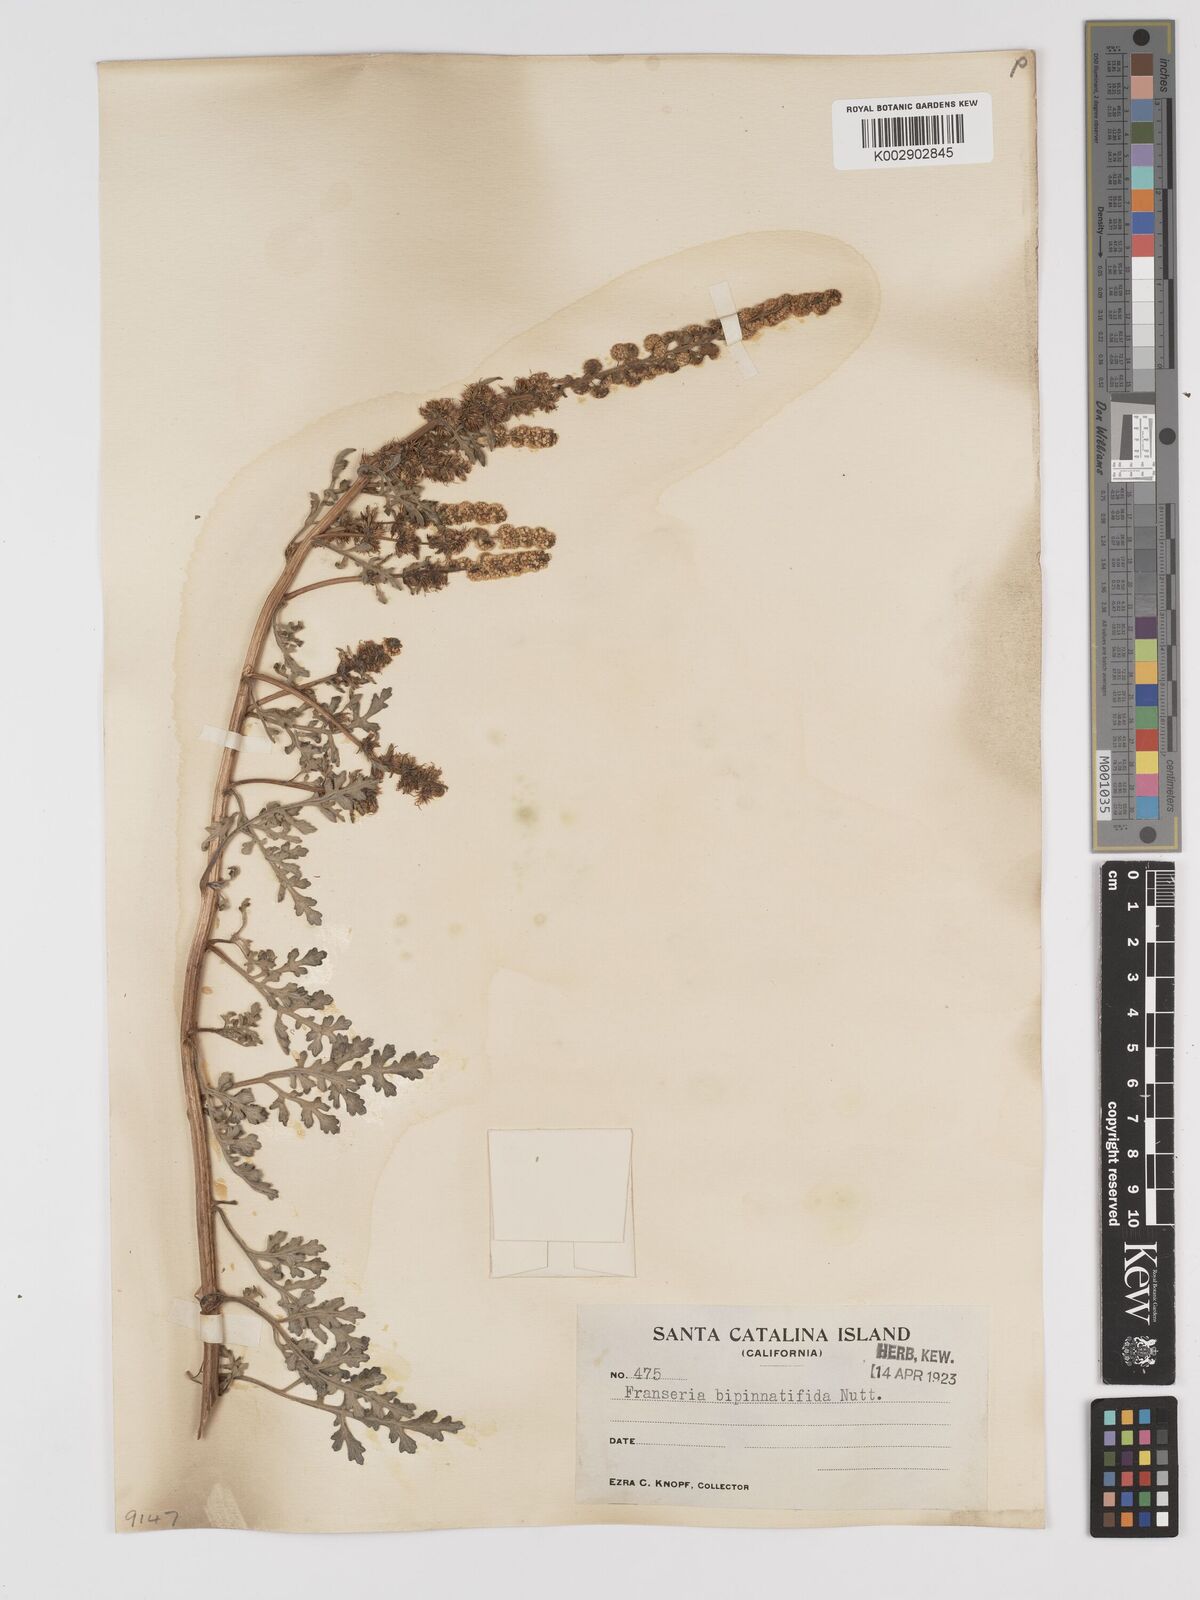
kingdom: Plantae
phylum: Tracheophyta
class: Magnoliopsida
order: Asterales
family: Asteraceae
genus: Ambrosia
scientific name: Ambrosia camphorata
